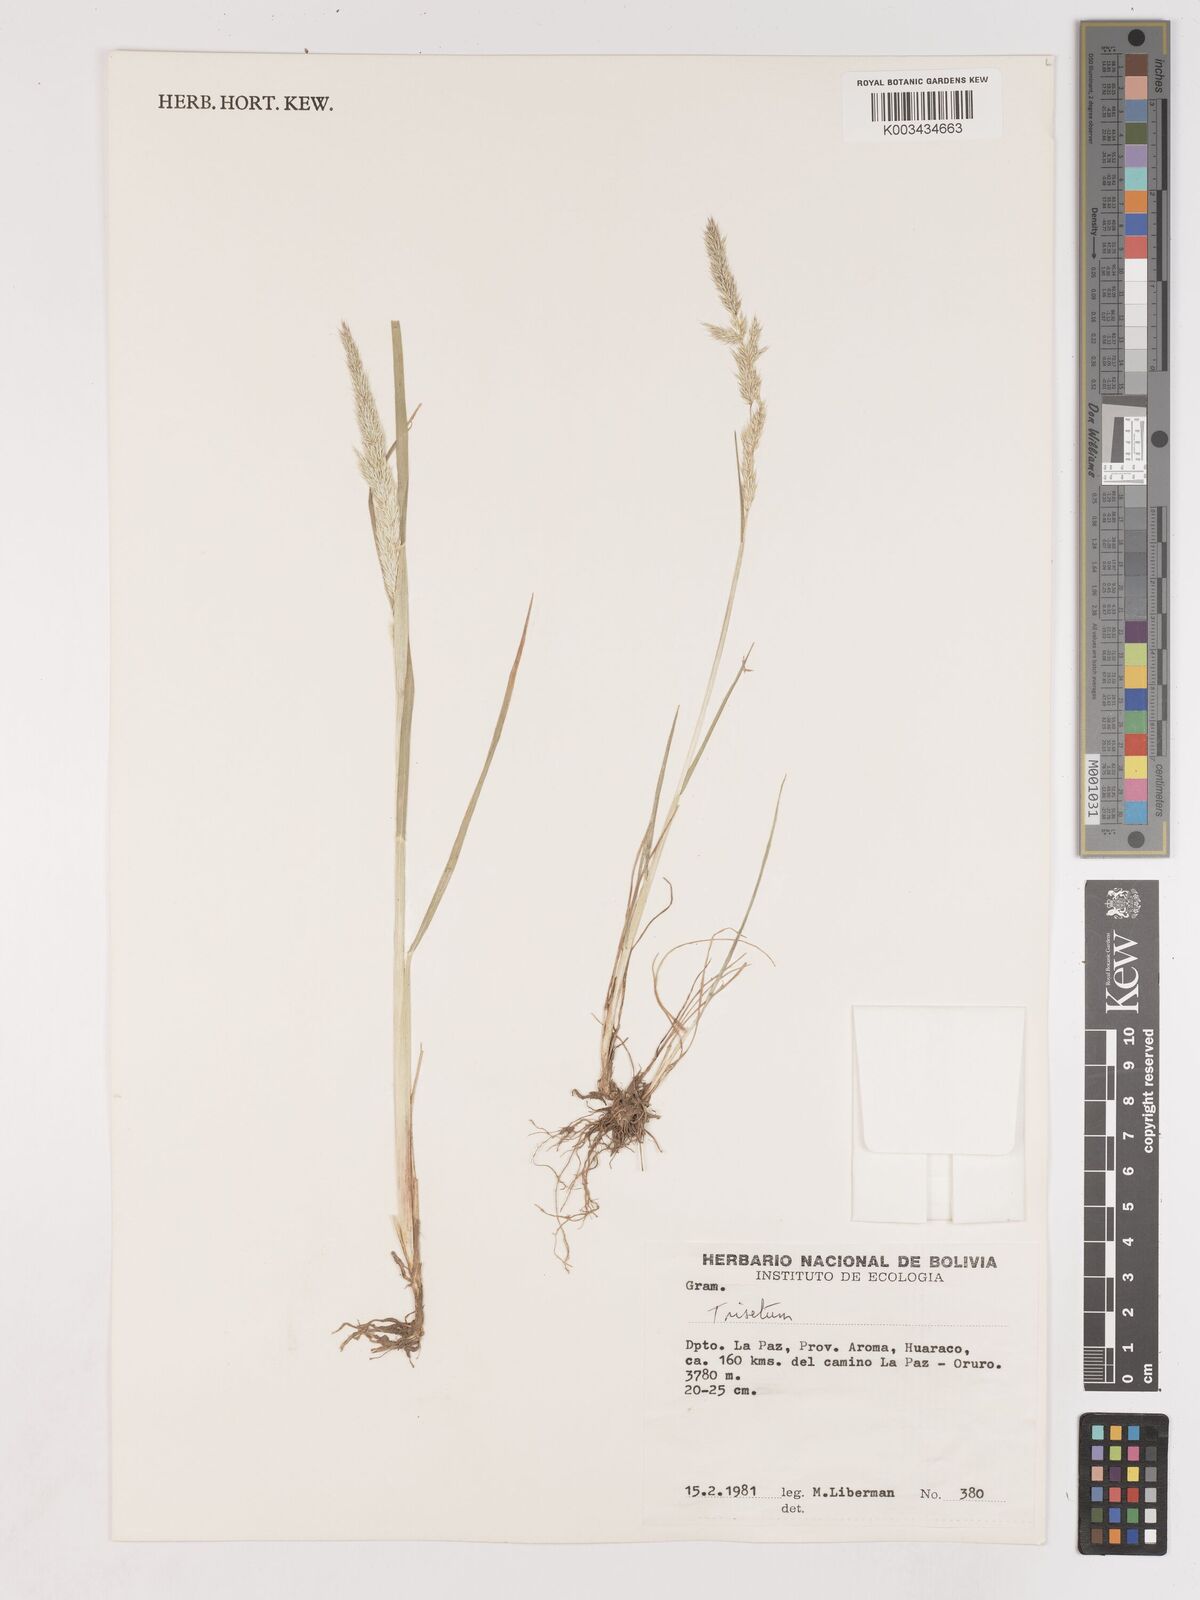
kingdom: Plantae
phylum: Tracheophyta
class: Liliopsida
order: Poales
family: Poaceae
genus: Cinnagrostis
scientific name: Cinnagrostis heterophylla
